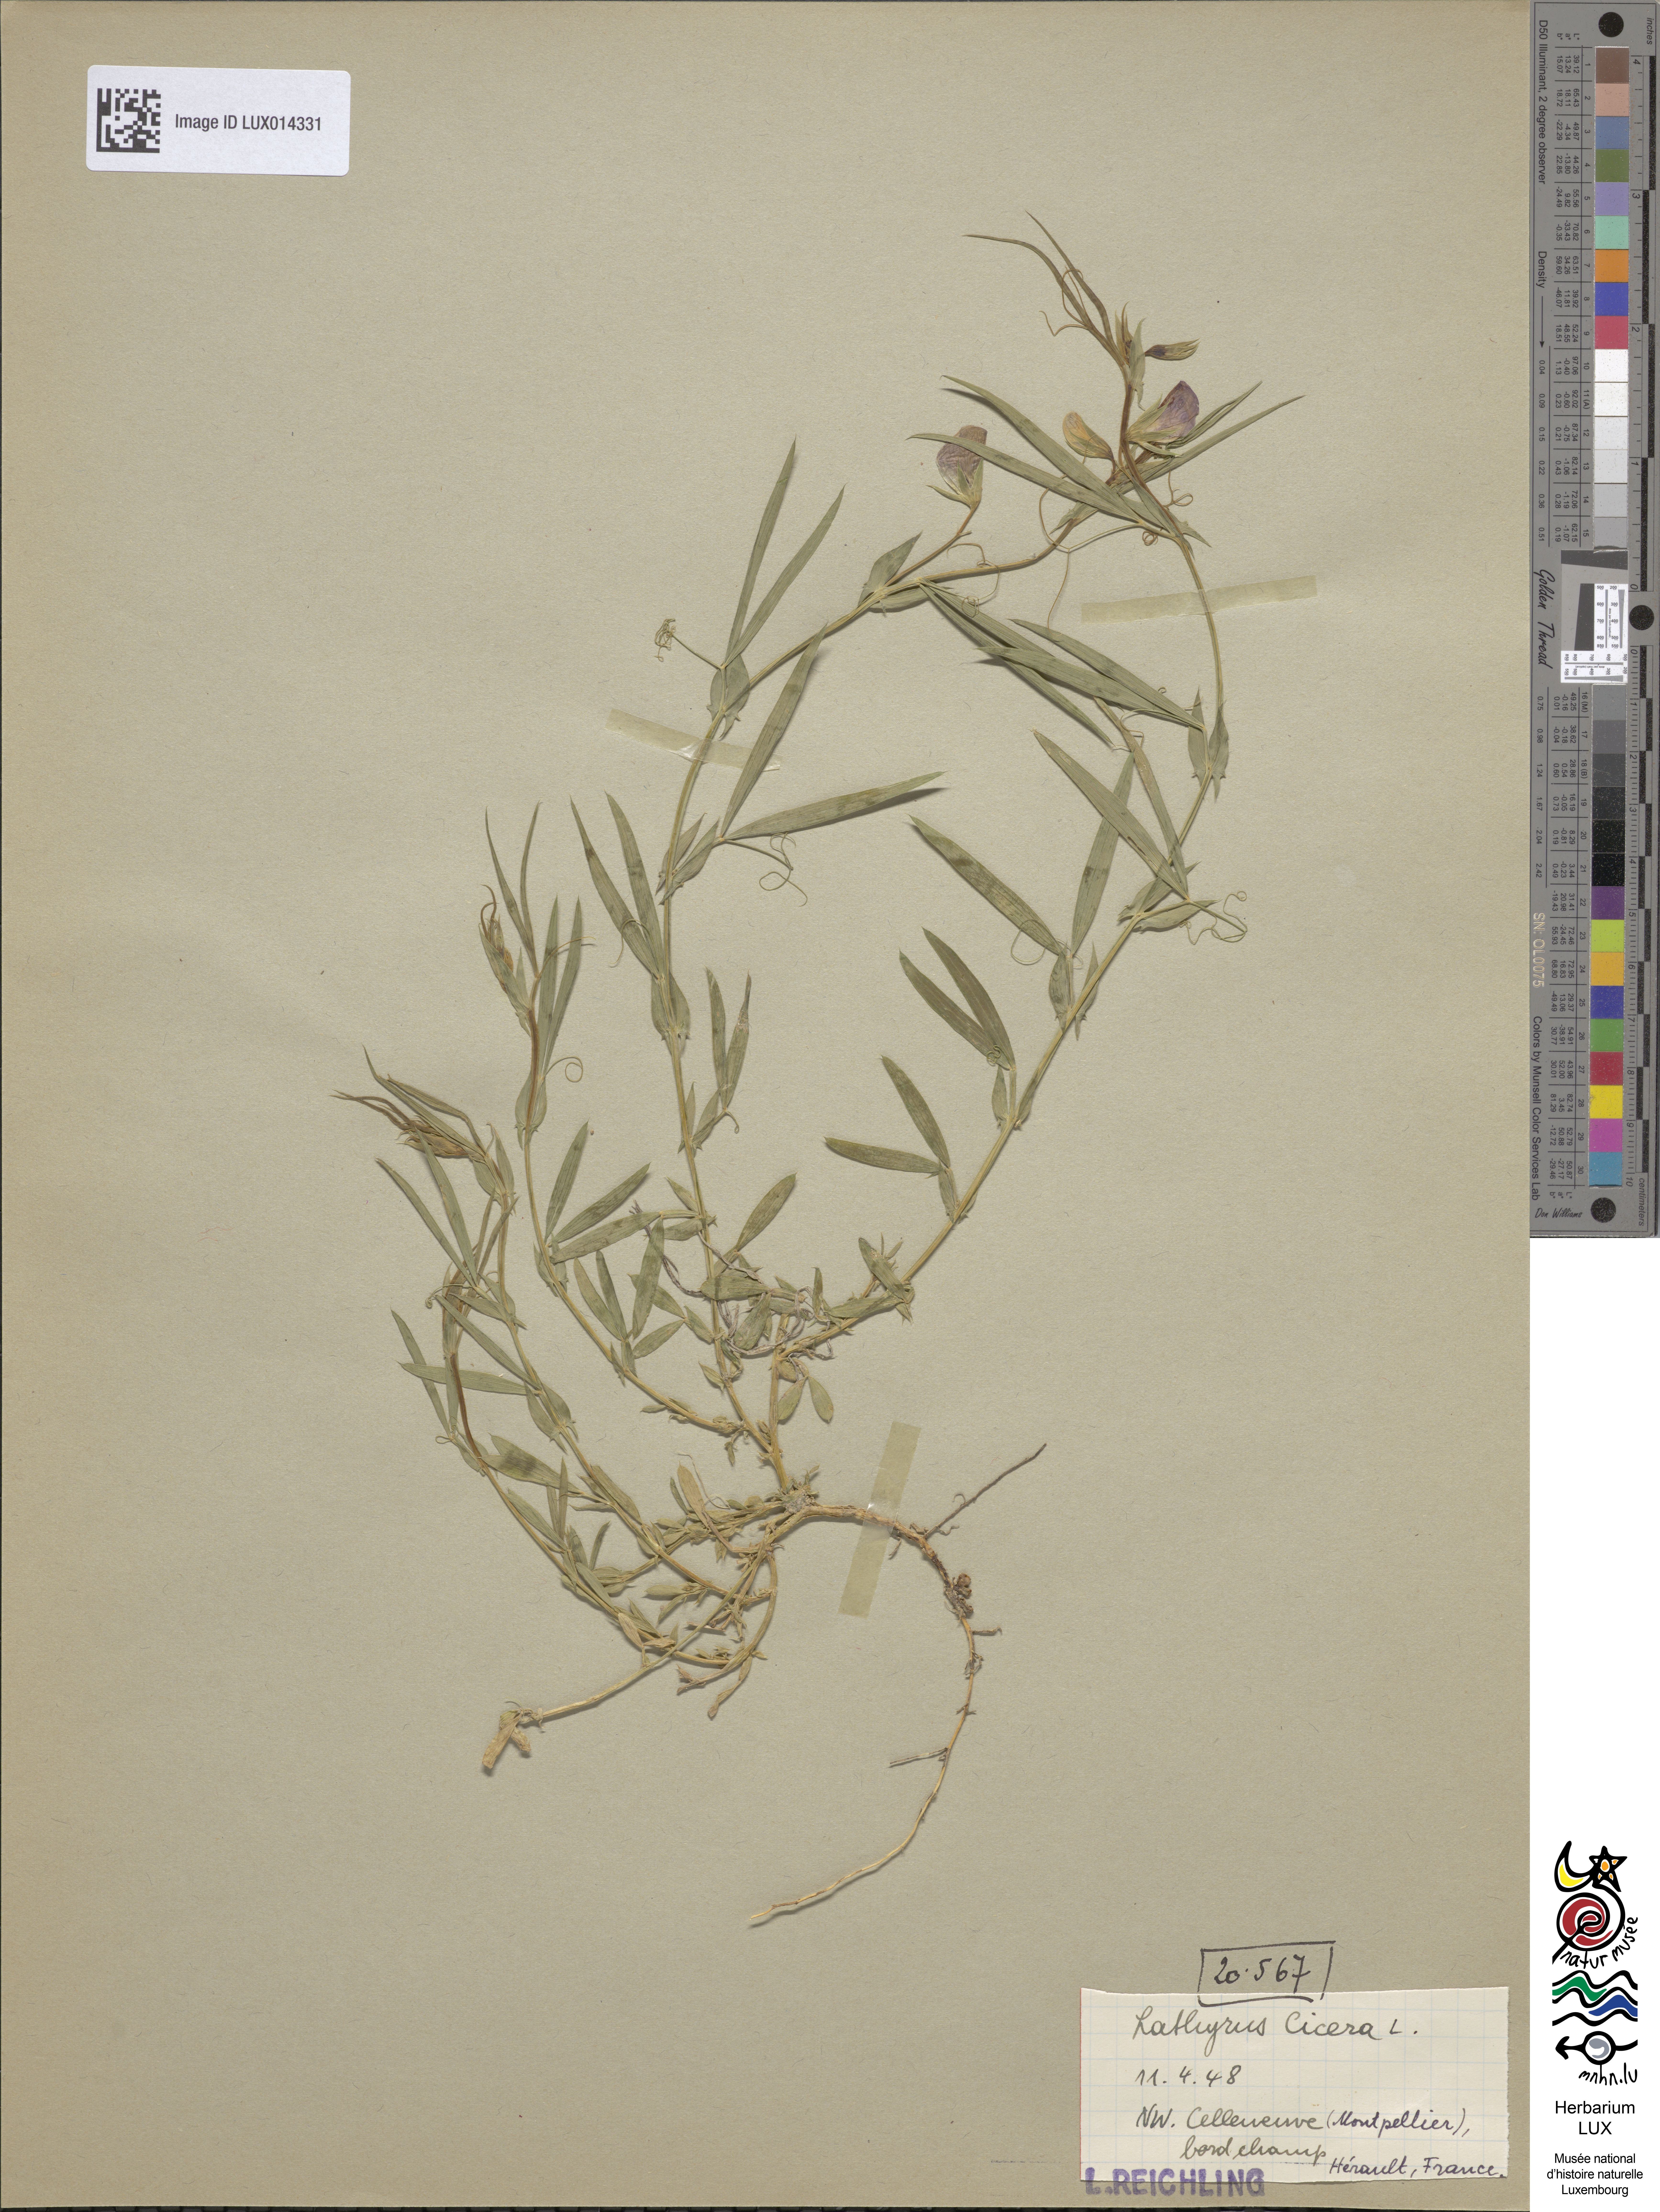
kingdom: Plantae
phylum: Tracheophyta
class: Magnoliopsida
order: Fabales
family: Fabaceae
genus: Lathyrus
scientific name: Lathyrus cicera
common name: Red vetchling
